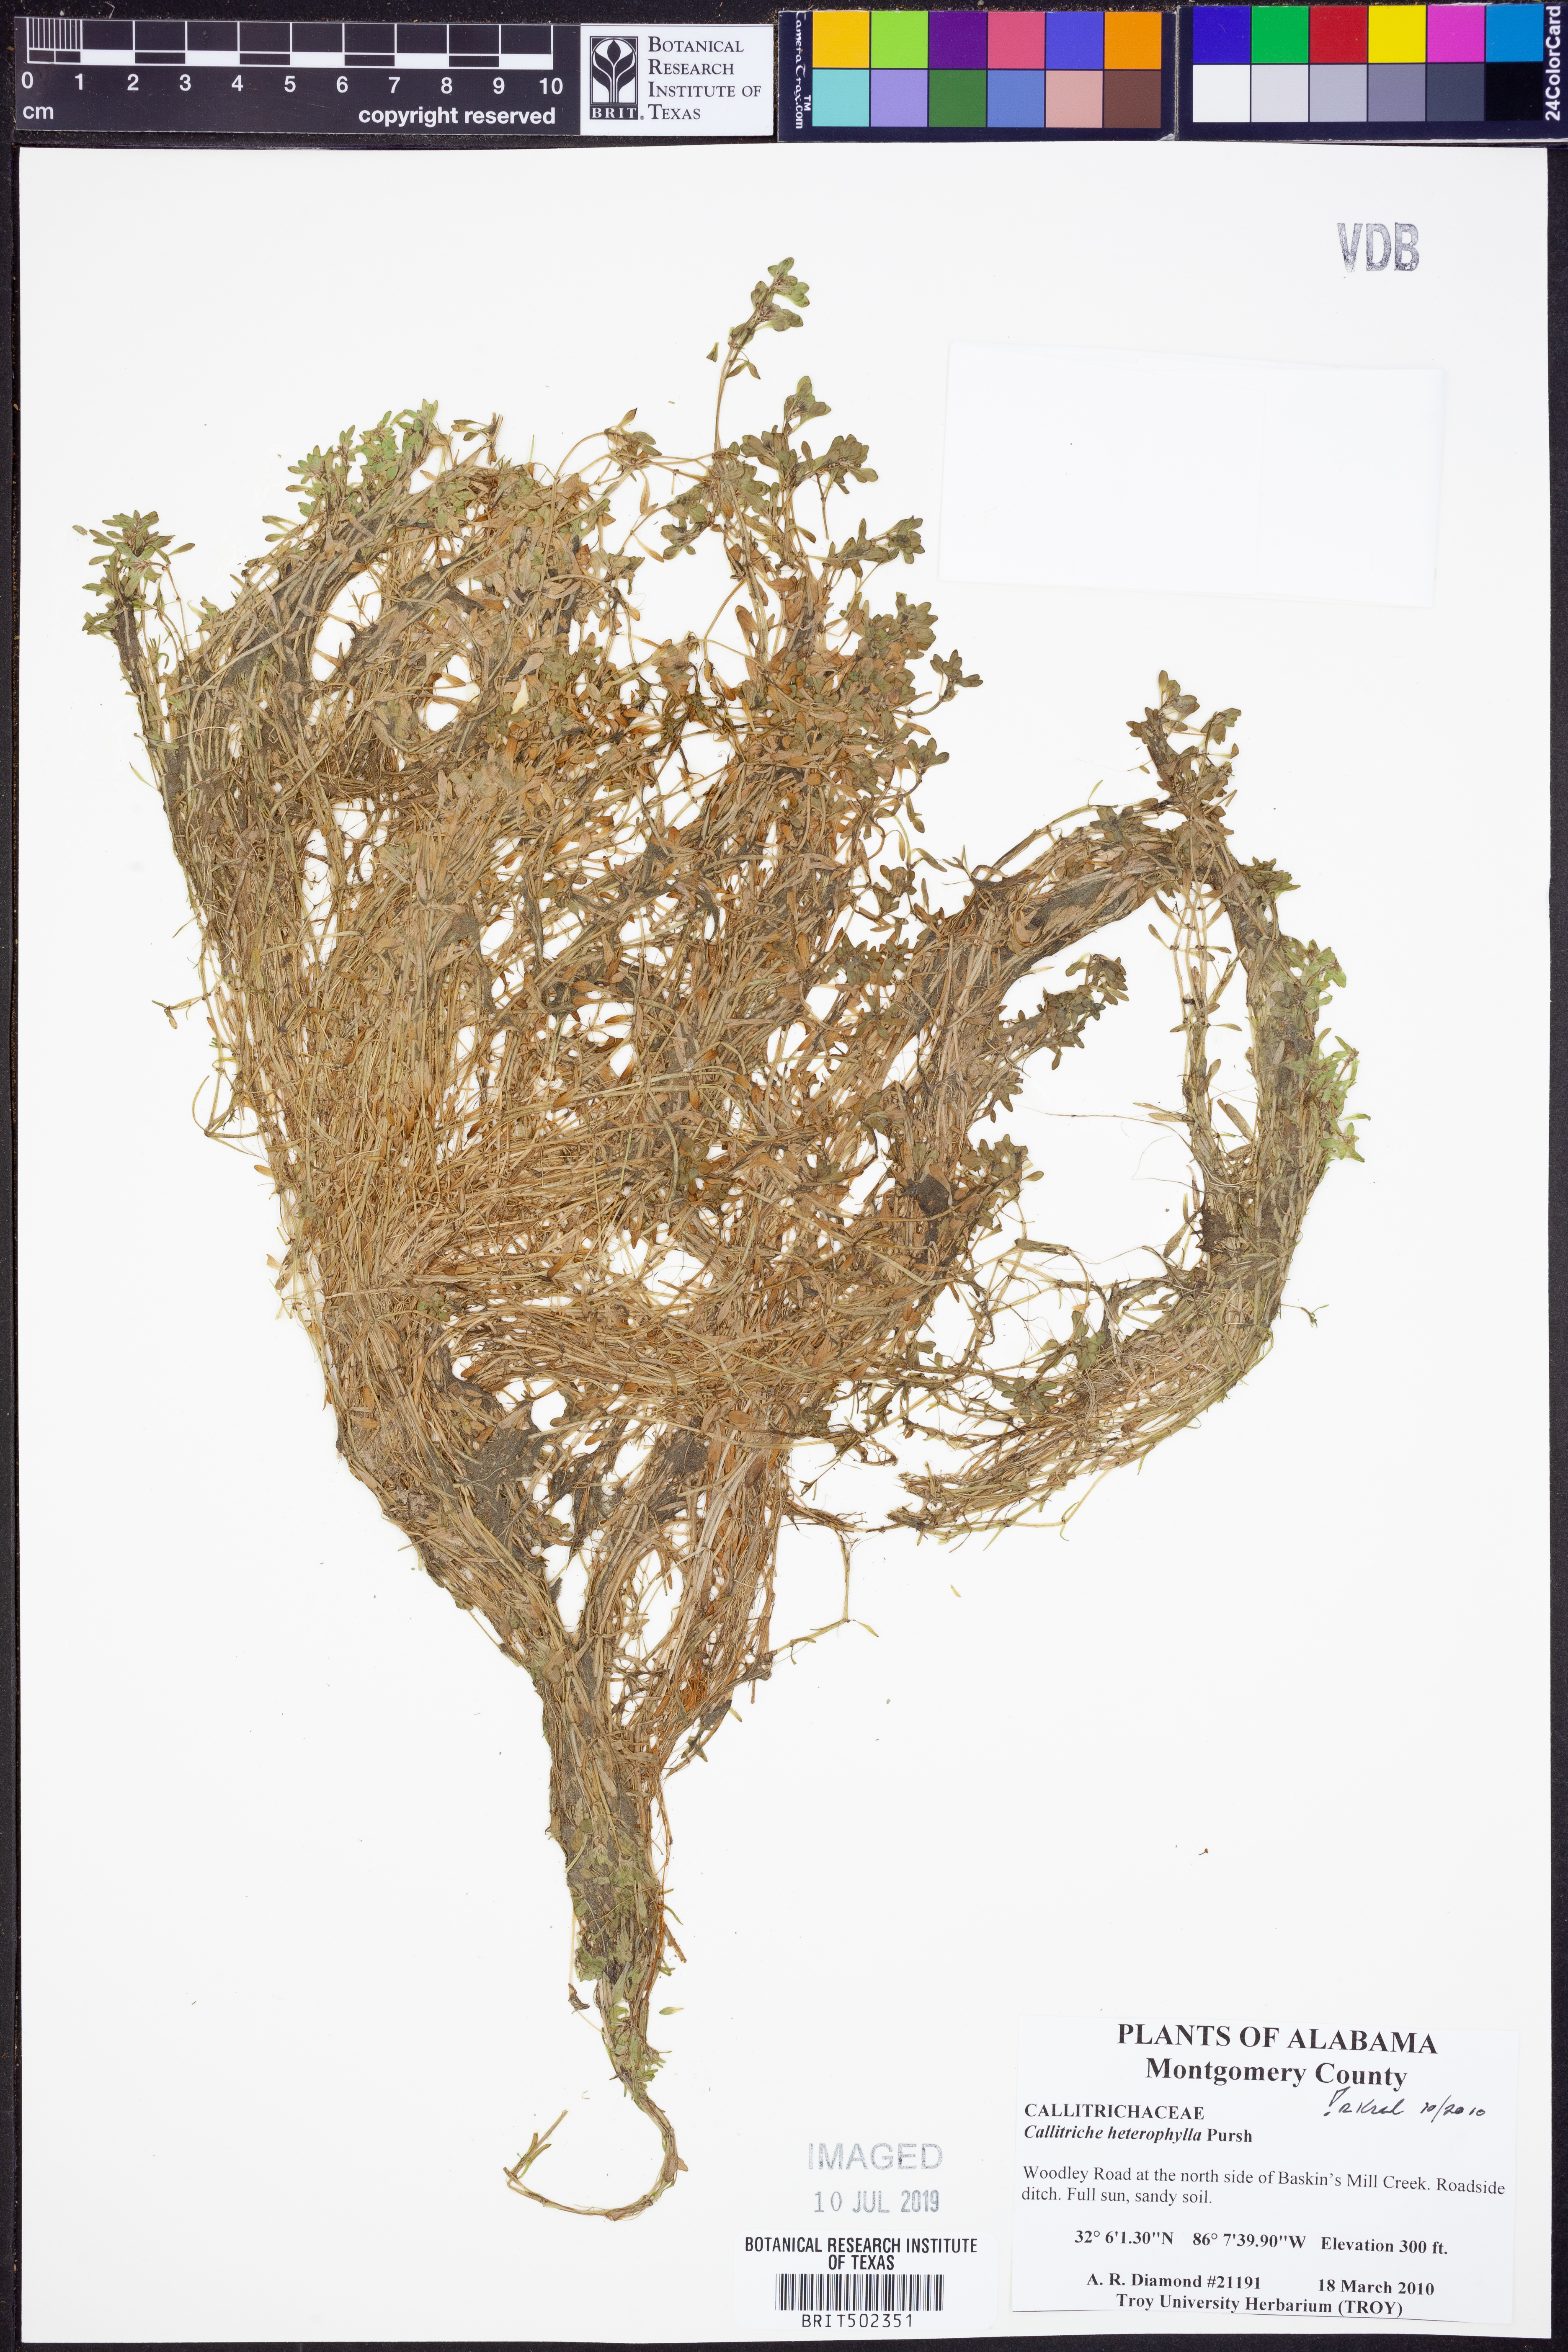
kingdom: Plantae
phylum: Tracheophyta
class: Magnoliopsida
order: Lamiales
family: Plantaginaceae
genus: Callitriche
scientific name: Callitriche heterophylla
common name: Two-headed water-starwort
